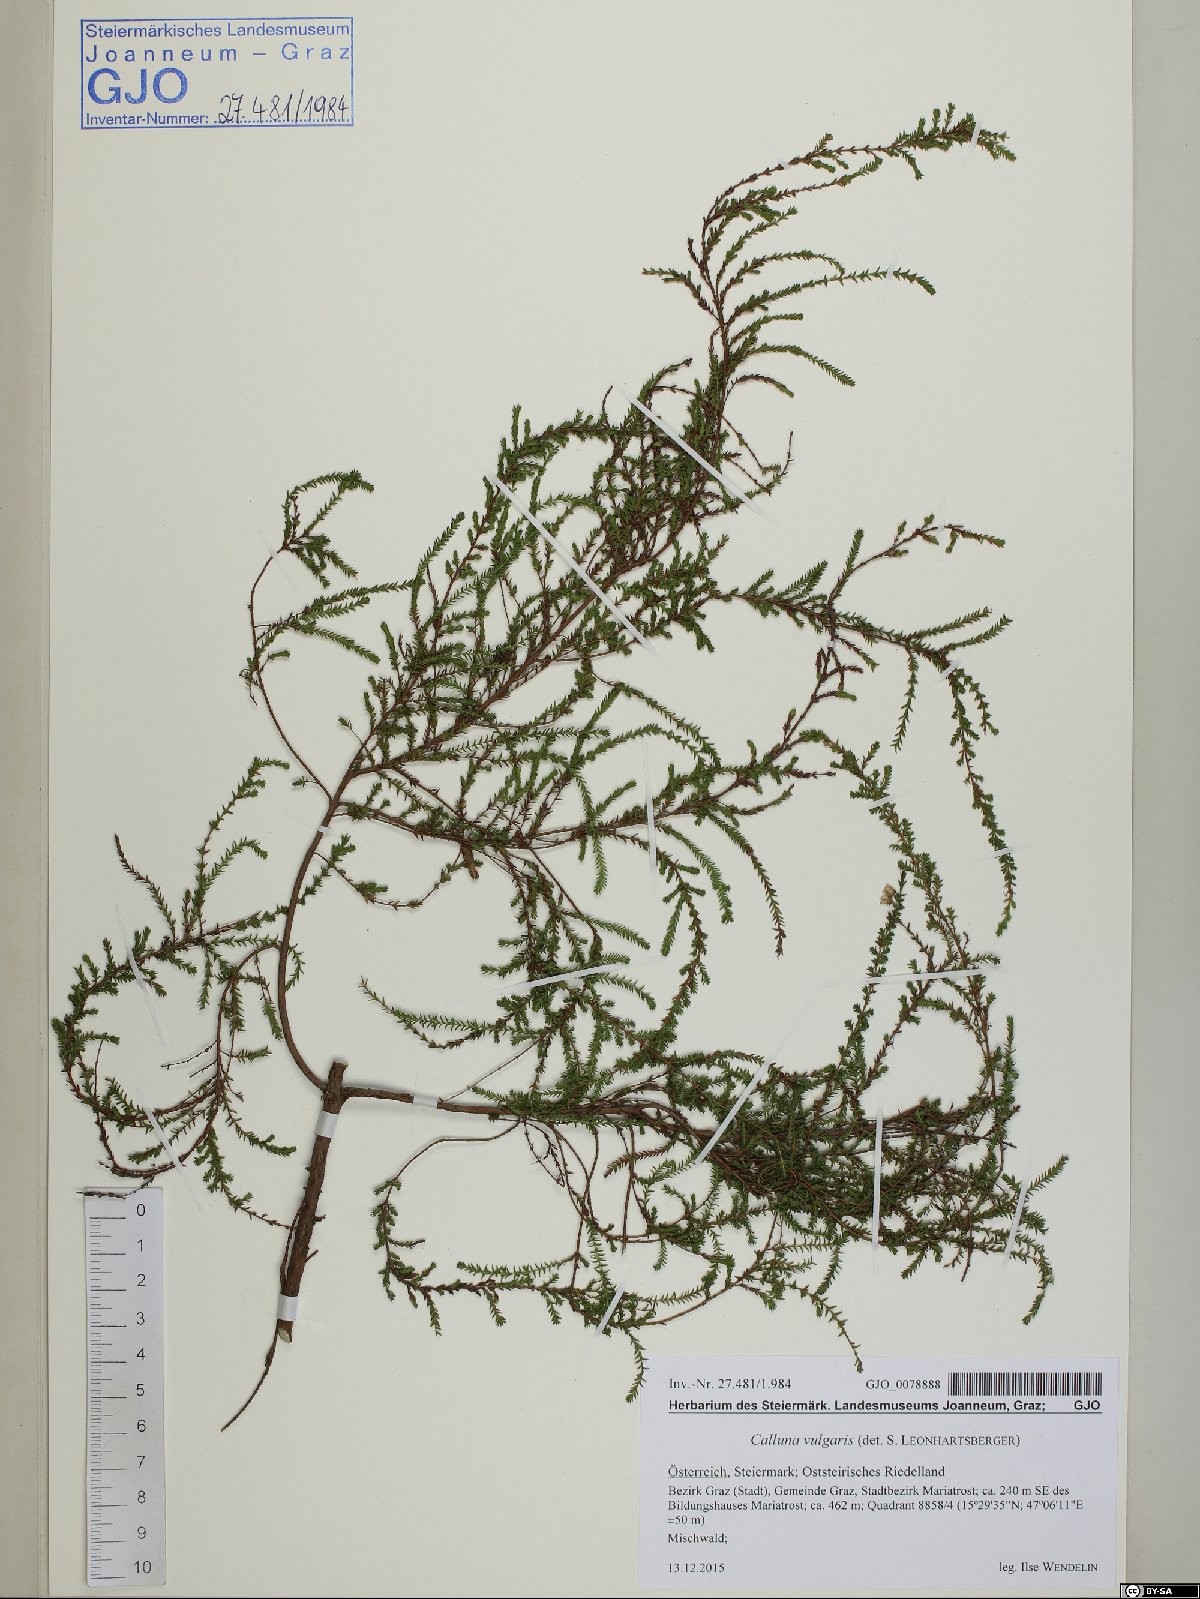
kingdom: Plantae
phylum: Tracheophyta
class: Magnoliopsida
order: Ericales
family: Ericaceae
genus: Calluna
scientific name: Calluna vulgaris
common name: Heather
